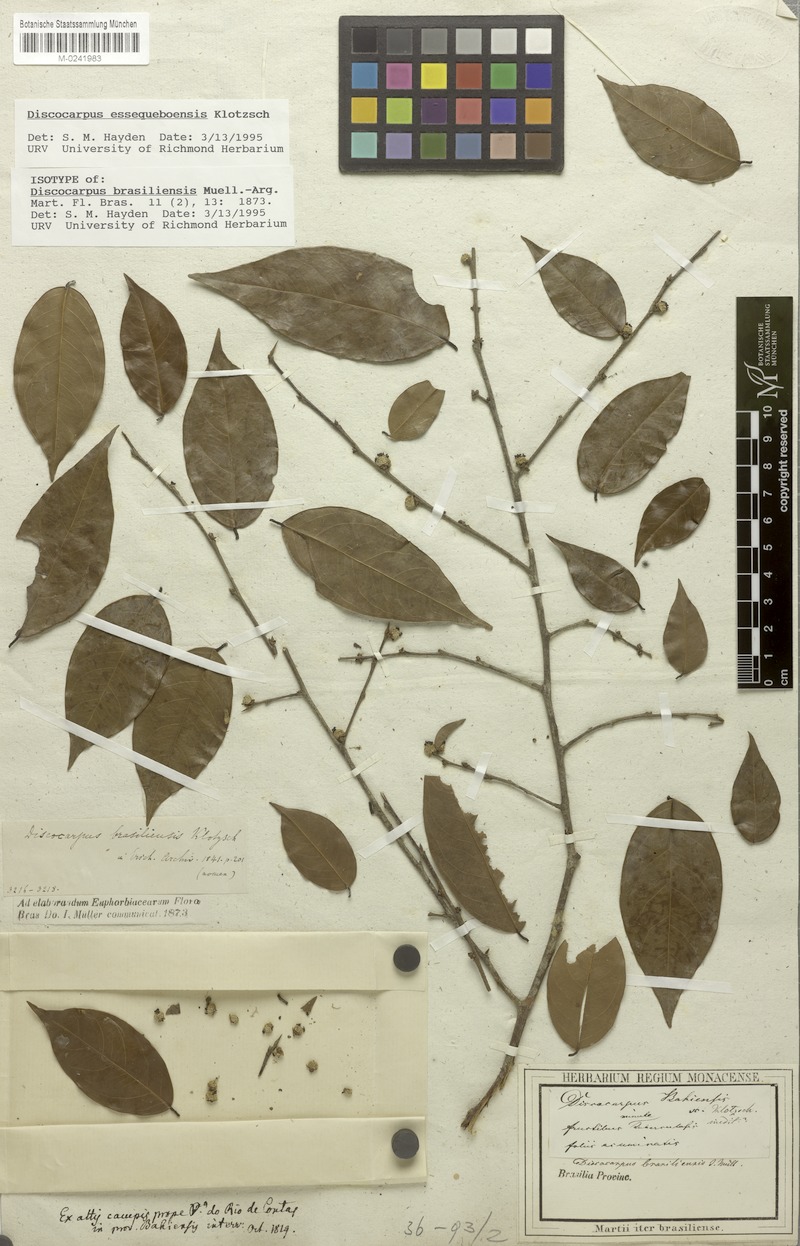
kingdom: Plantae
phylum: Tracheophyta
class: Magnoliopsida
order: Malpighiales
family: Phyllanthaceae
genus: Discocarpus
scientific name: Discocarpus essequeboensis
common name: Sqaure-wood
